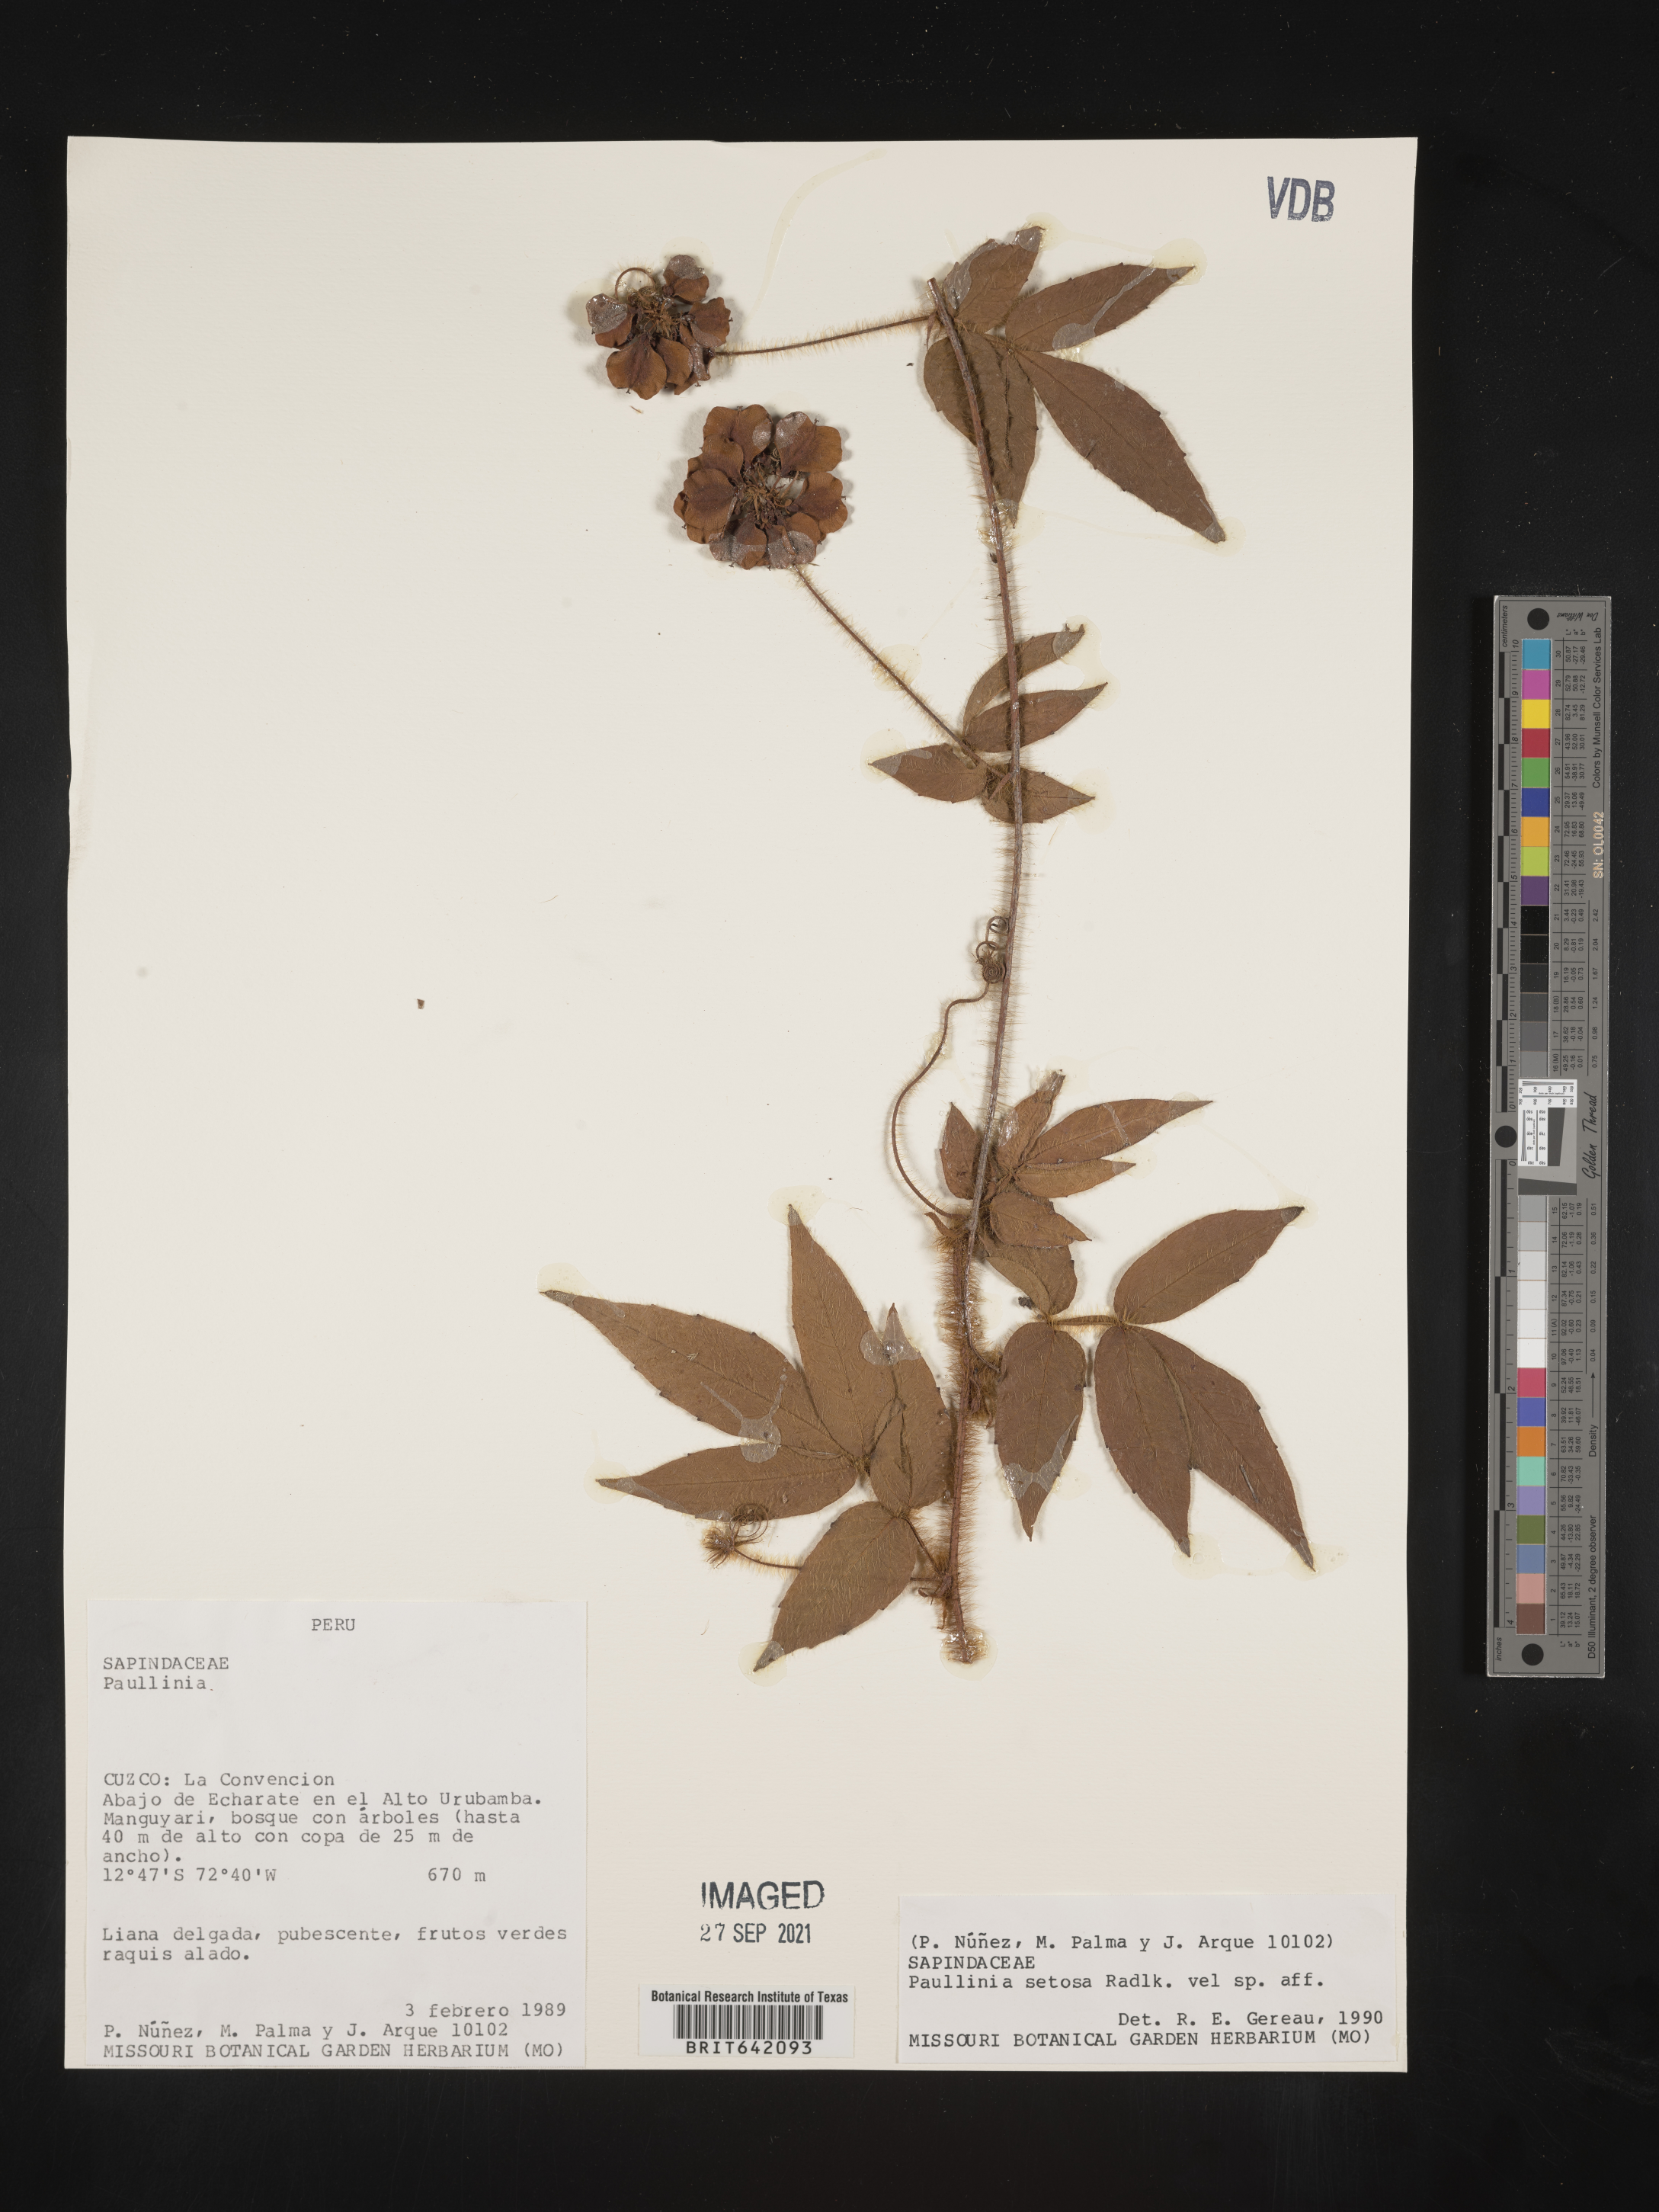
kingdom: Plantae
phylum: Tracheophyta
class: Magnoliopsida
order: Sapindales
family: Sapindaceae
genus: Paullinia
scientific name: Paullinia
